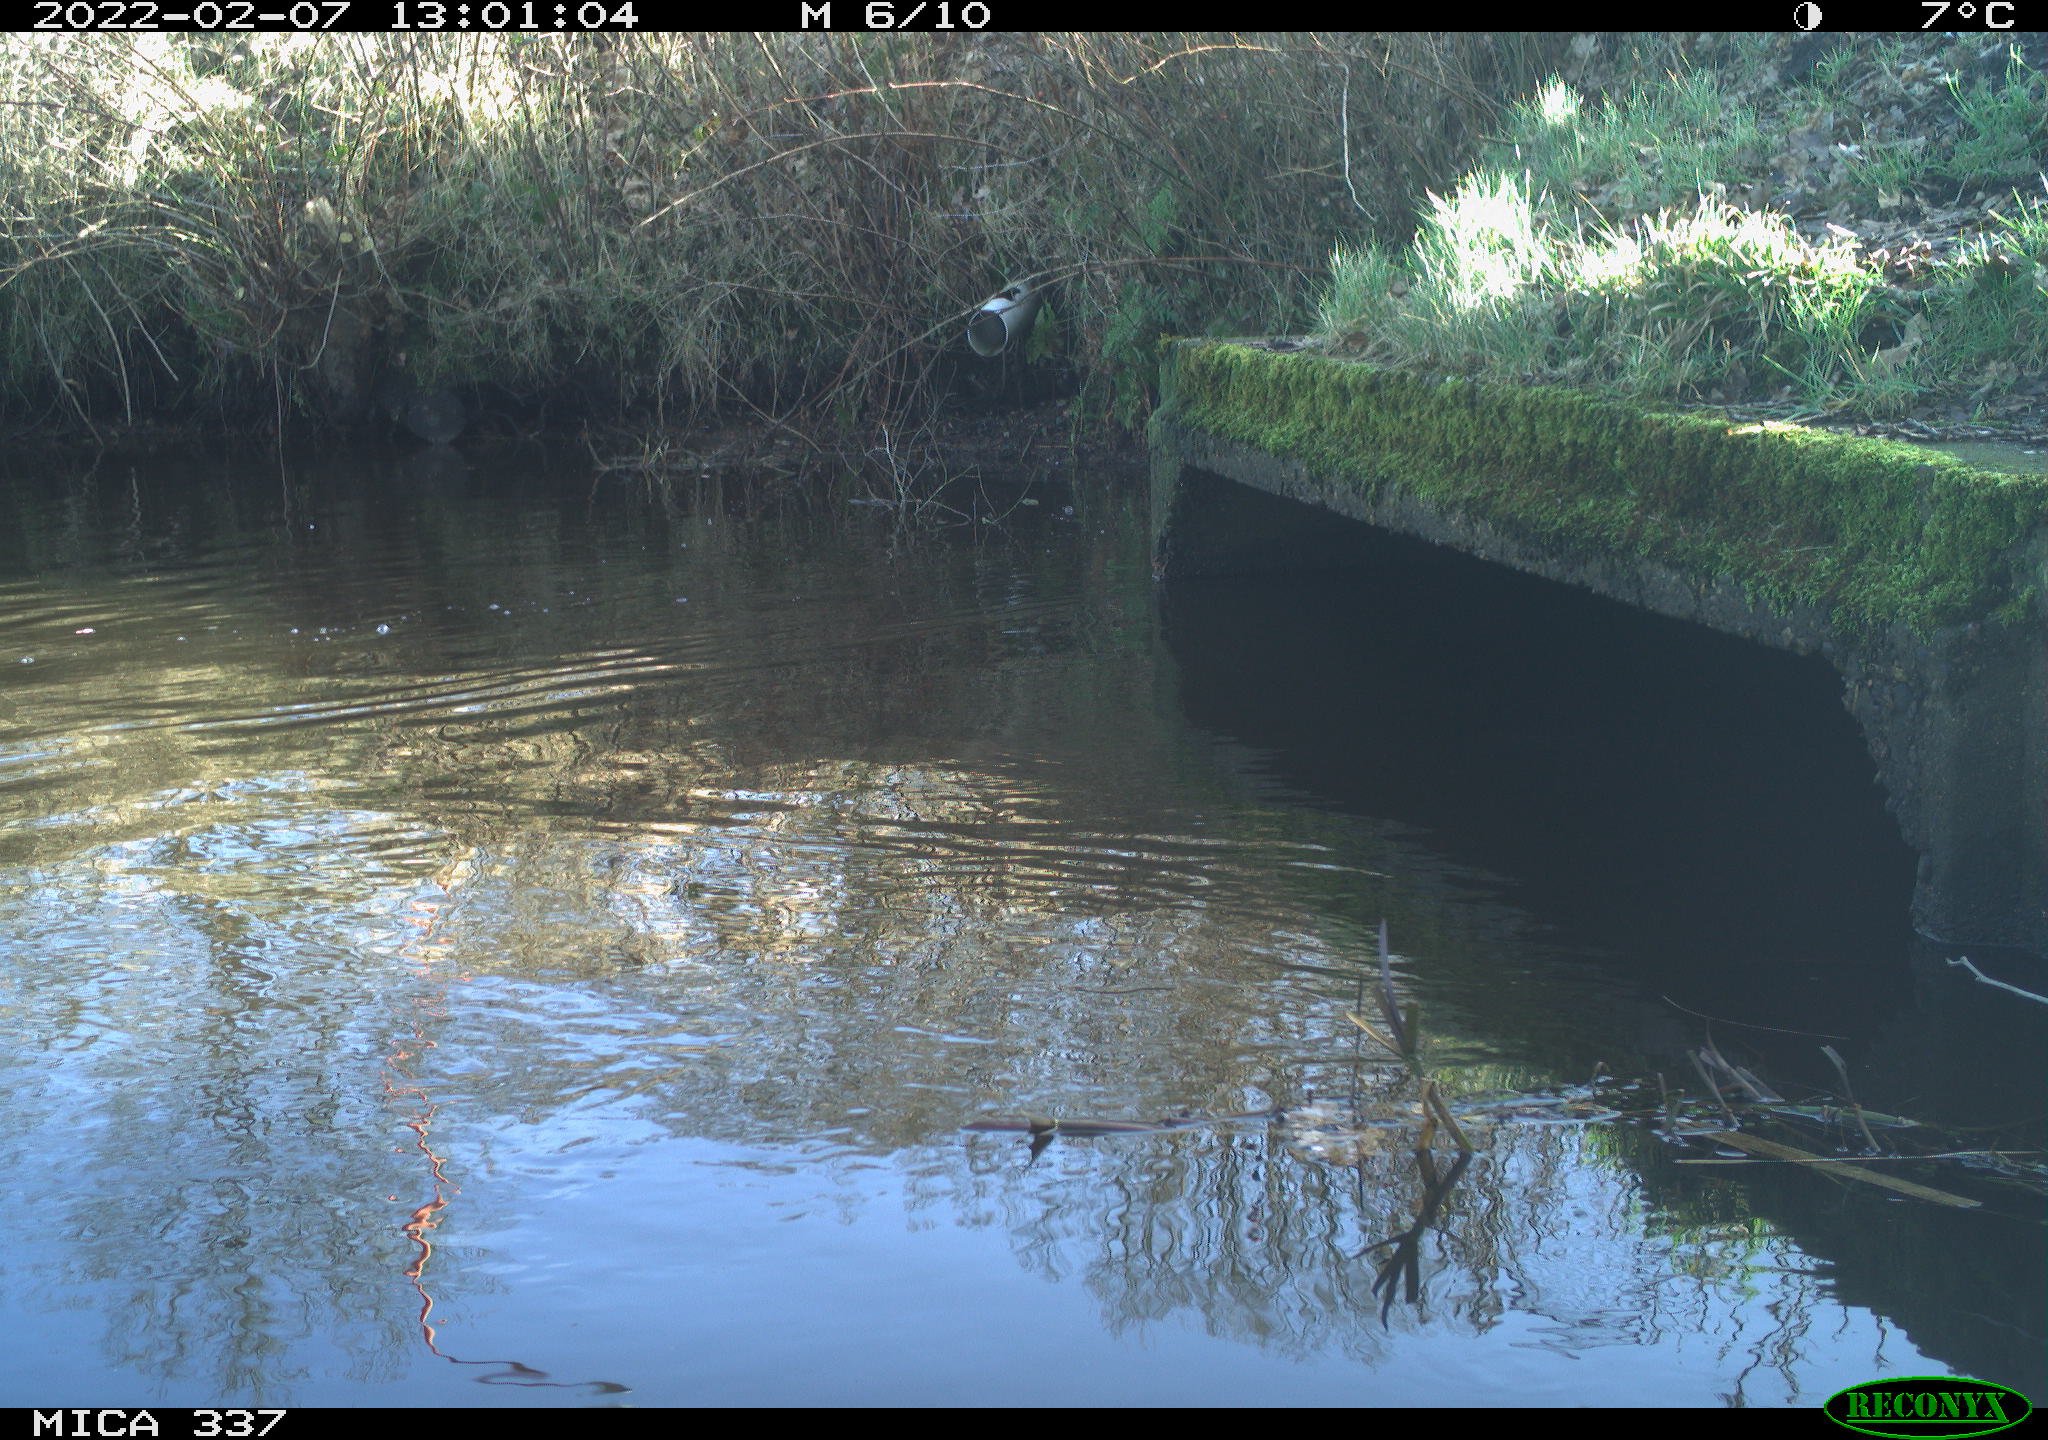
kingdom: Animalia
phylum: Chordata
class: Aves
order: Anseriformes
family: Anatidae
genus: Anas
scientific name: Anas platyrhynchos
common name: Mallard
